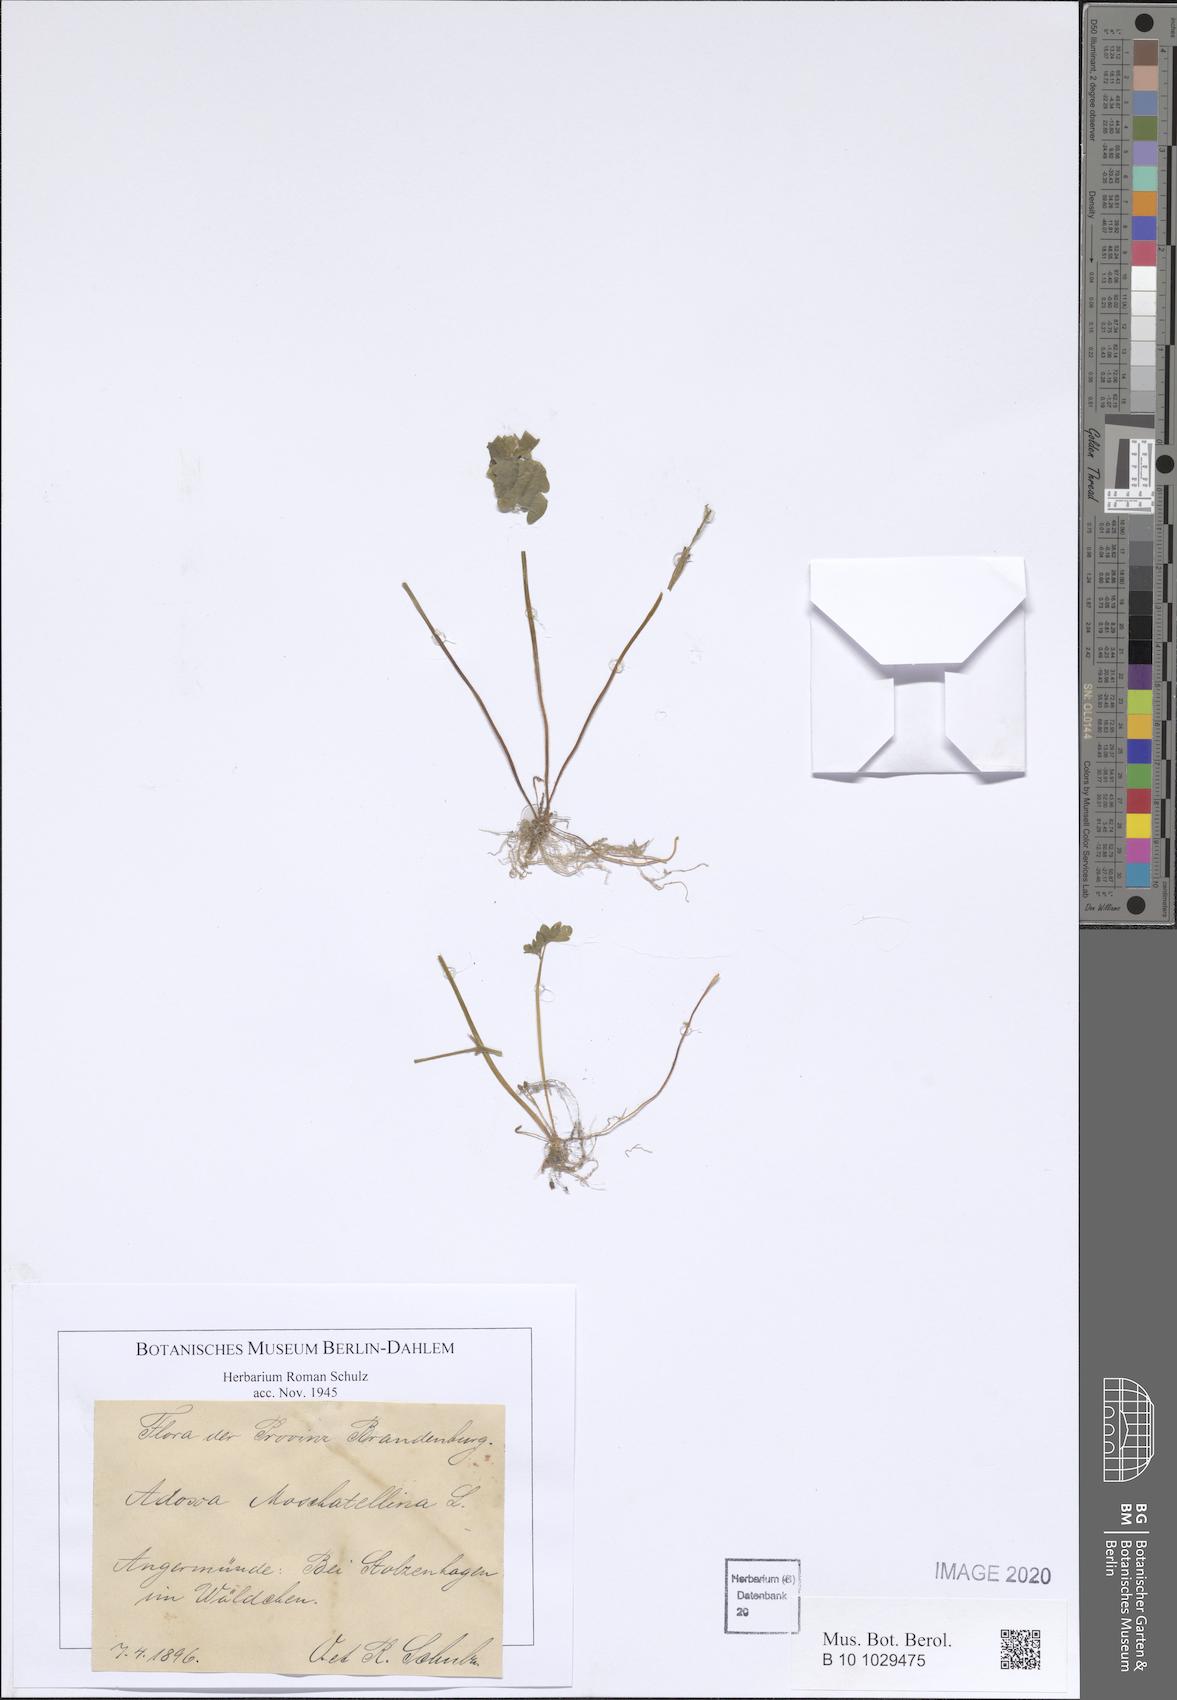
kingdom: Plantae
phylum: Tracheophyta
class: Magnoliopsida
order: Dipsacales
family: Viburnaceae
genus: Adoxa
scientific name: Adoxa moschatellina
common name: Moschatel
